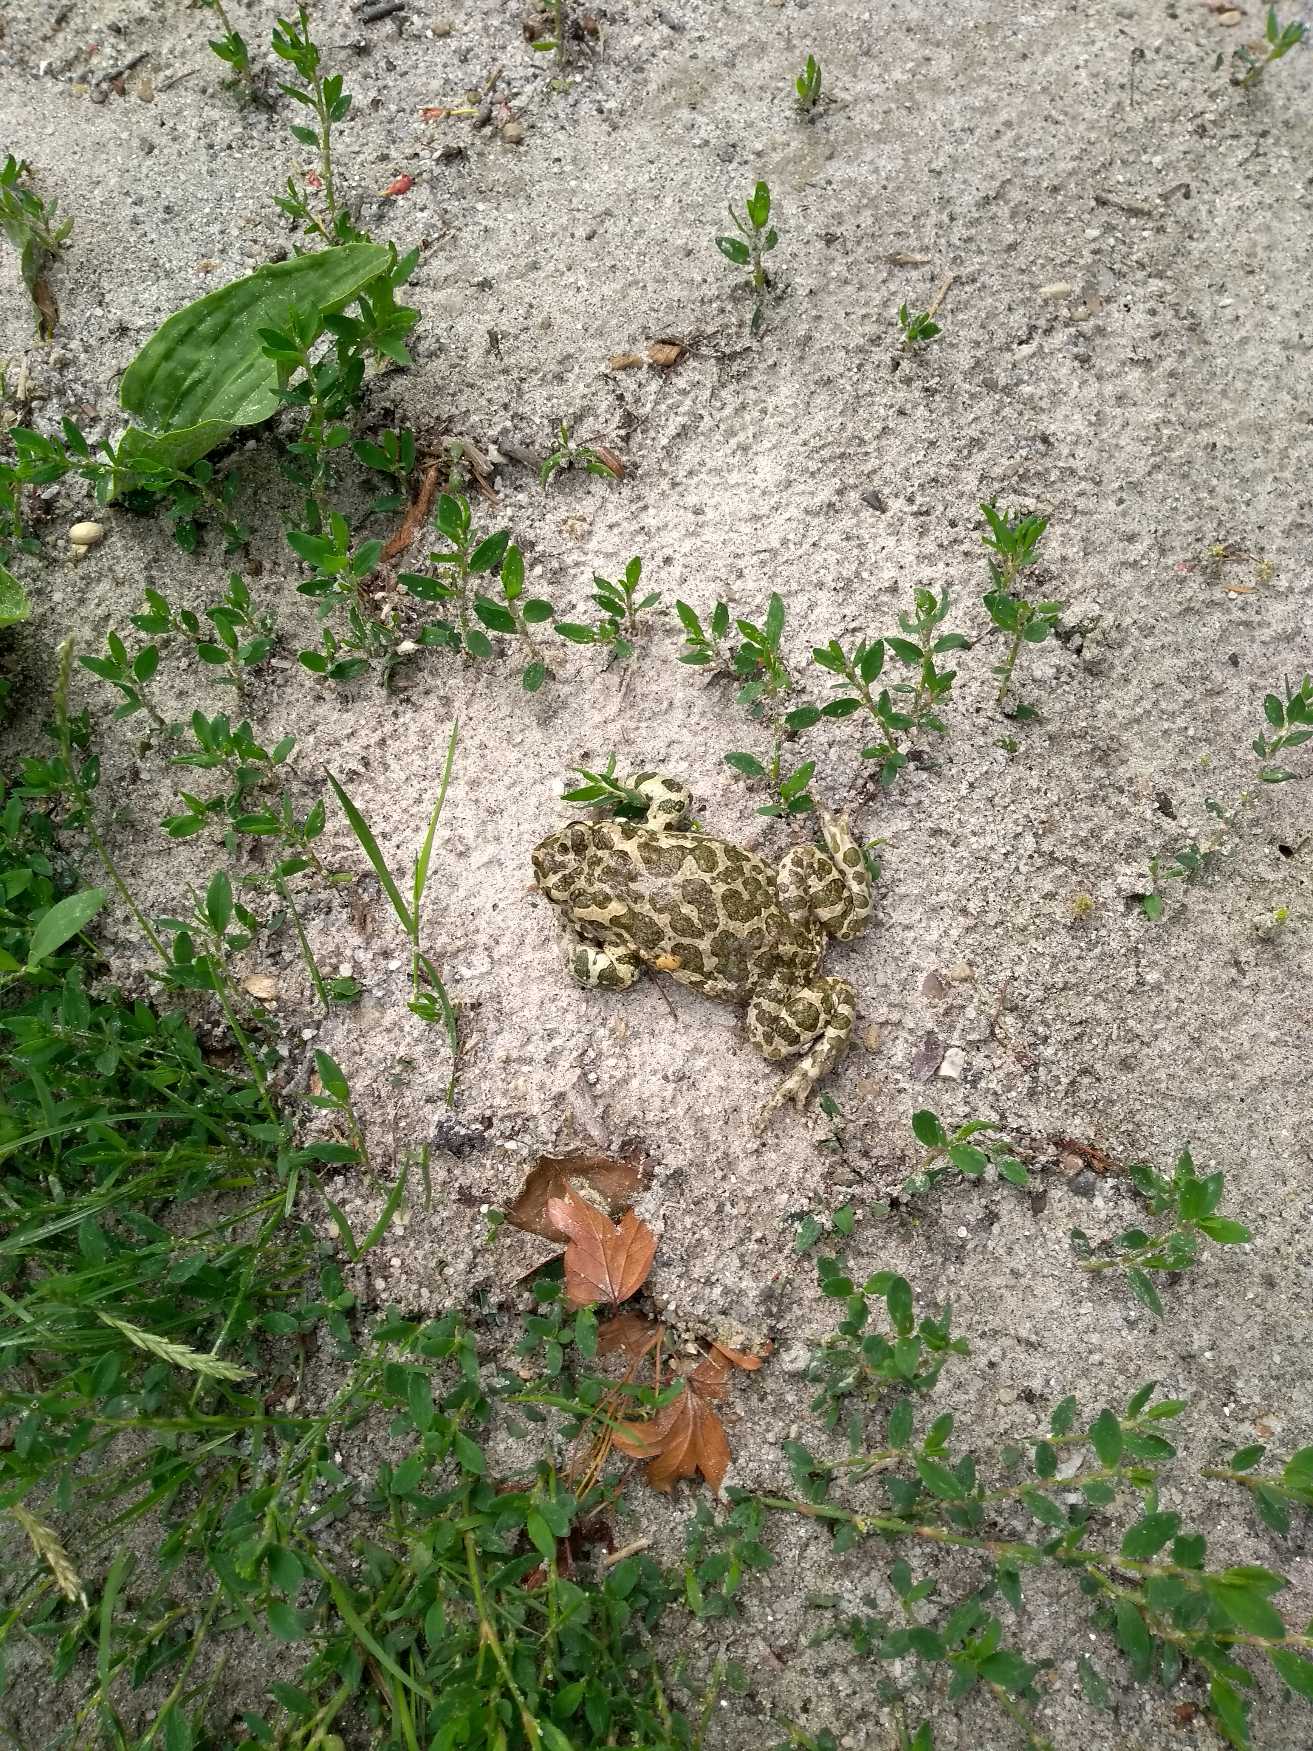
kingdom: Animalia
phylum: Chordata
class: Amphibia
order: Anura
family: Bufonidae
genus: Bufotes
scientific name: Bufotes viridis
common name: Grønbroget tudse
